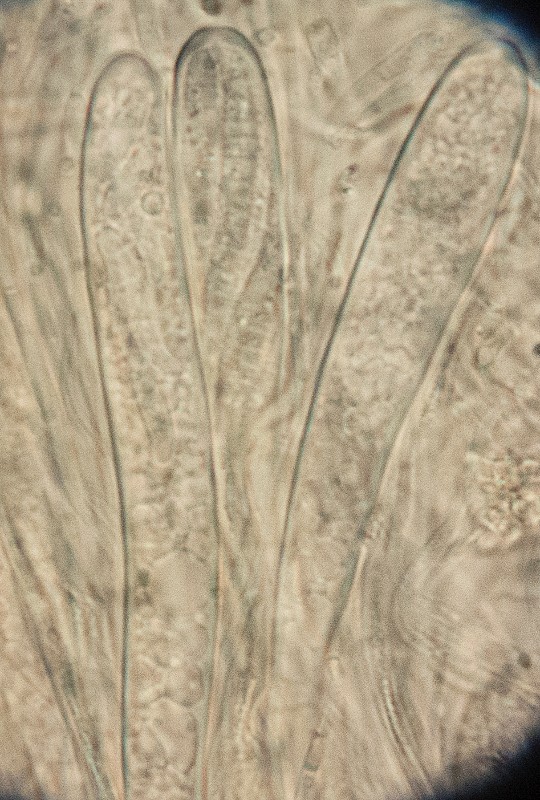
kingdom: Fungi
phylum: Ascomycota
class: Leotiomycetes
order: Leotiales
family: Tympanidaceae
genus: Vexillomyces
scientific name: Vexillomyces atrovirens
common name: sortgrøn linseskive
